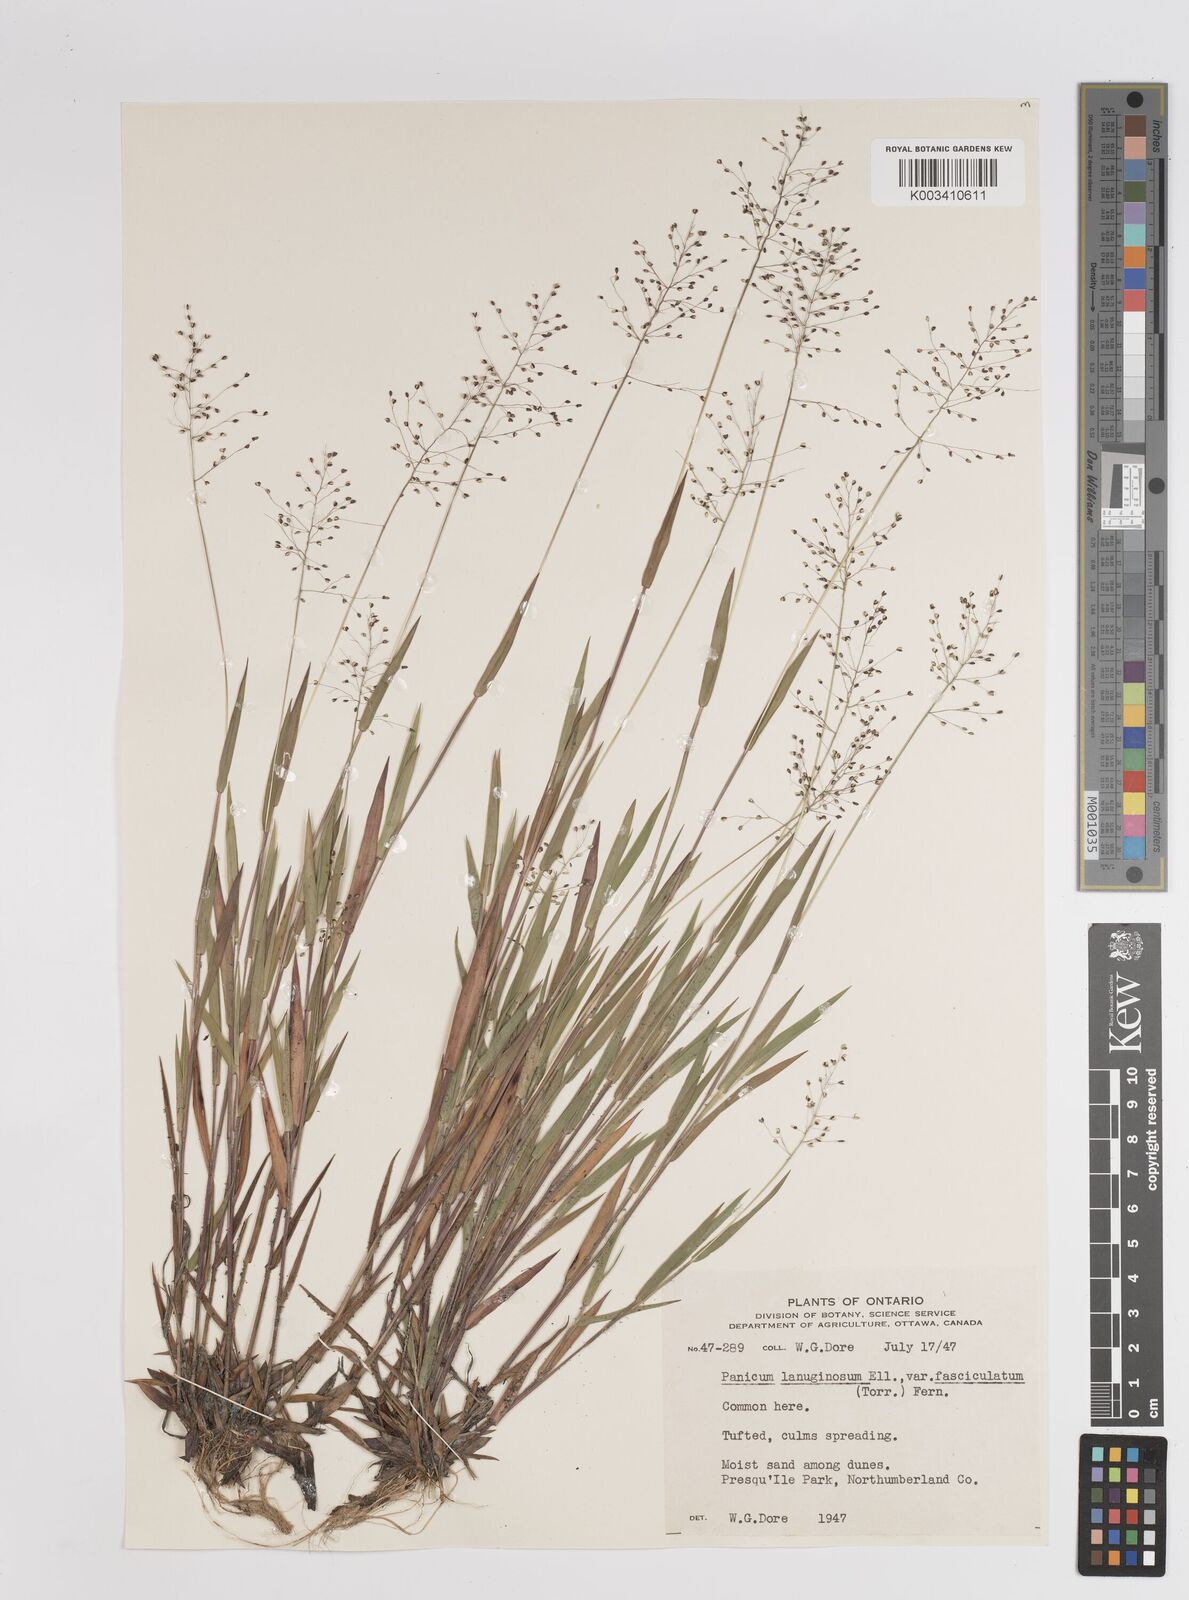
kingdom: Plantae
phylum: Tracheophyta
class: Liliopsida
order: Poales
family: Poaceae
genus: Dichanthelium
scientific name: Dichanthelium lanuginosum
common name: Woolly panicgrass
